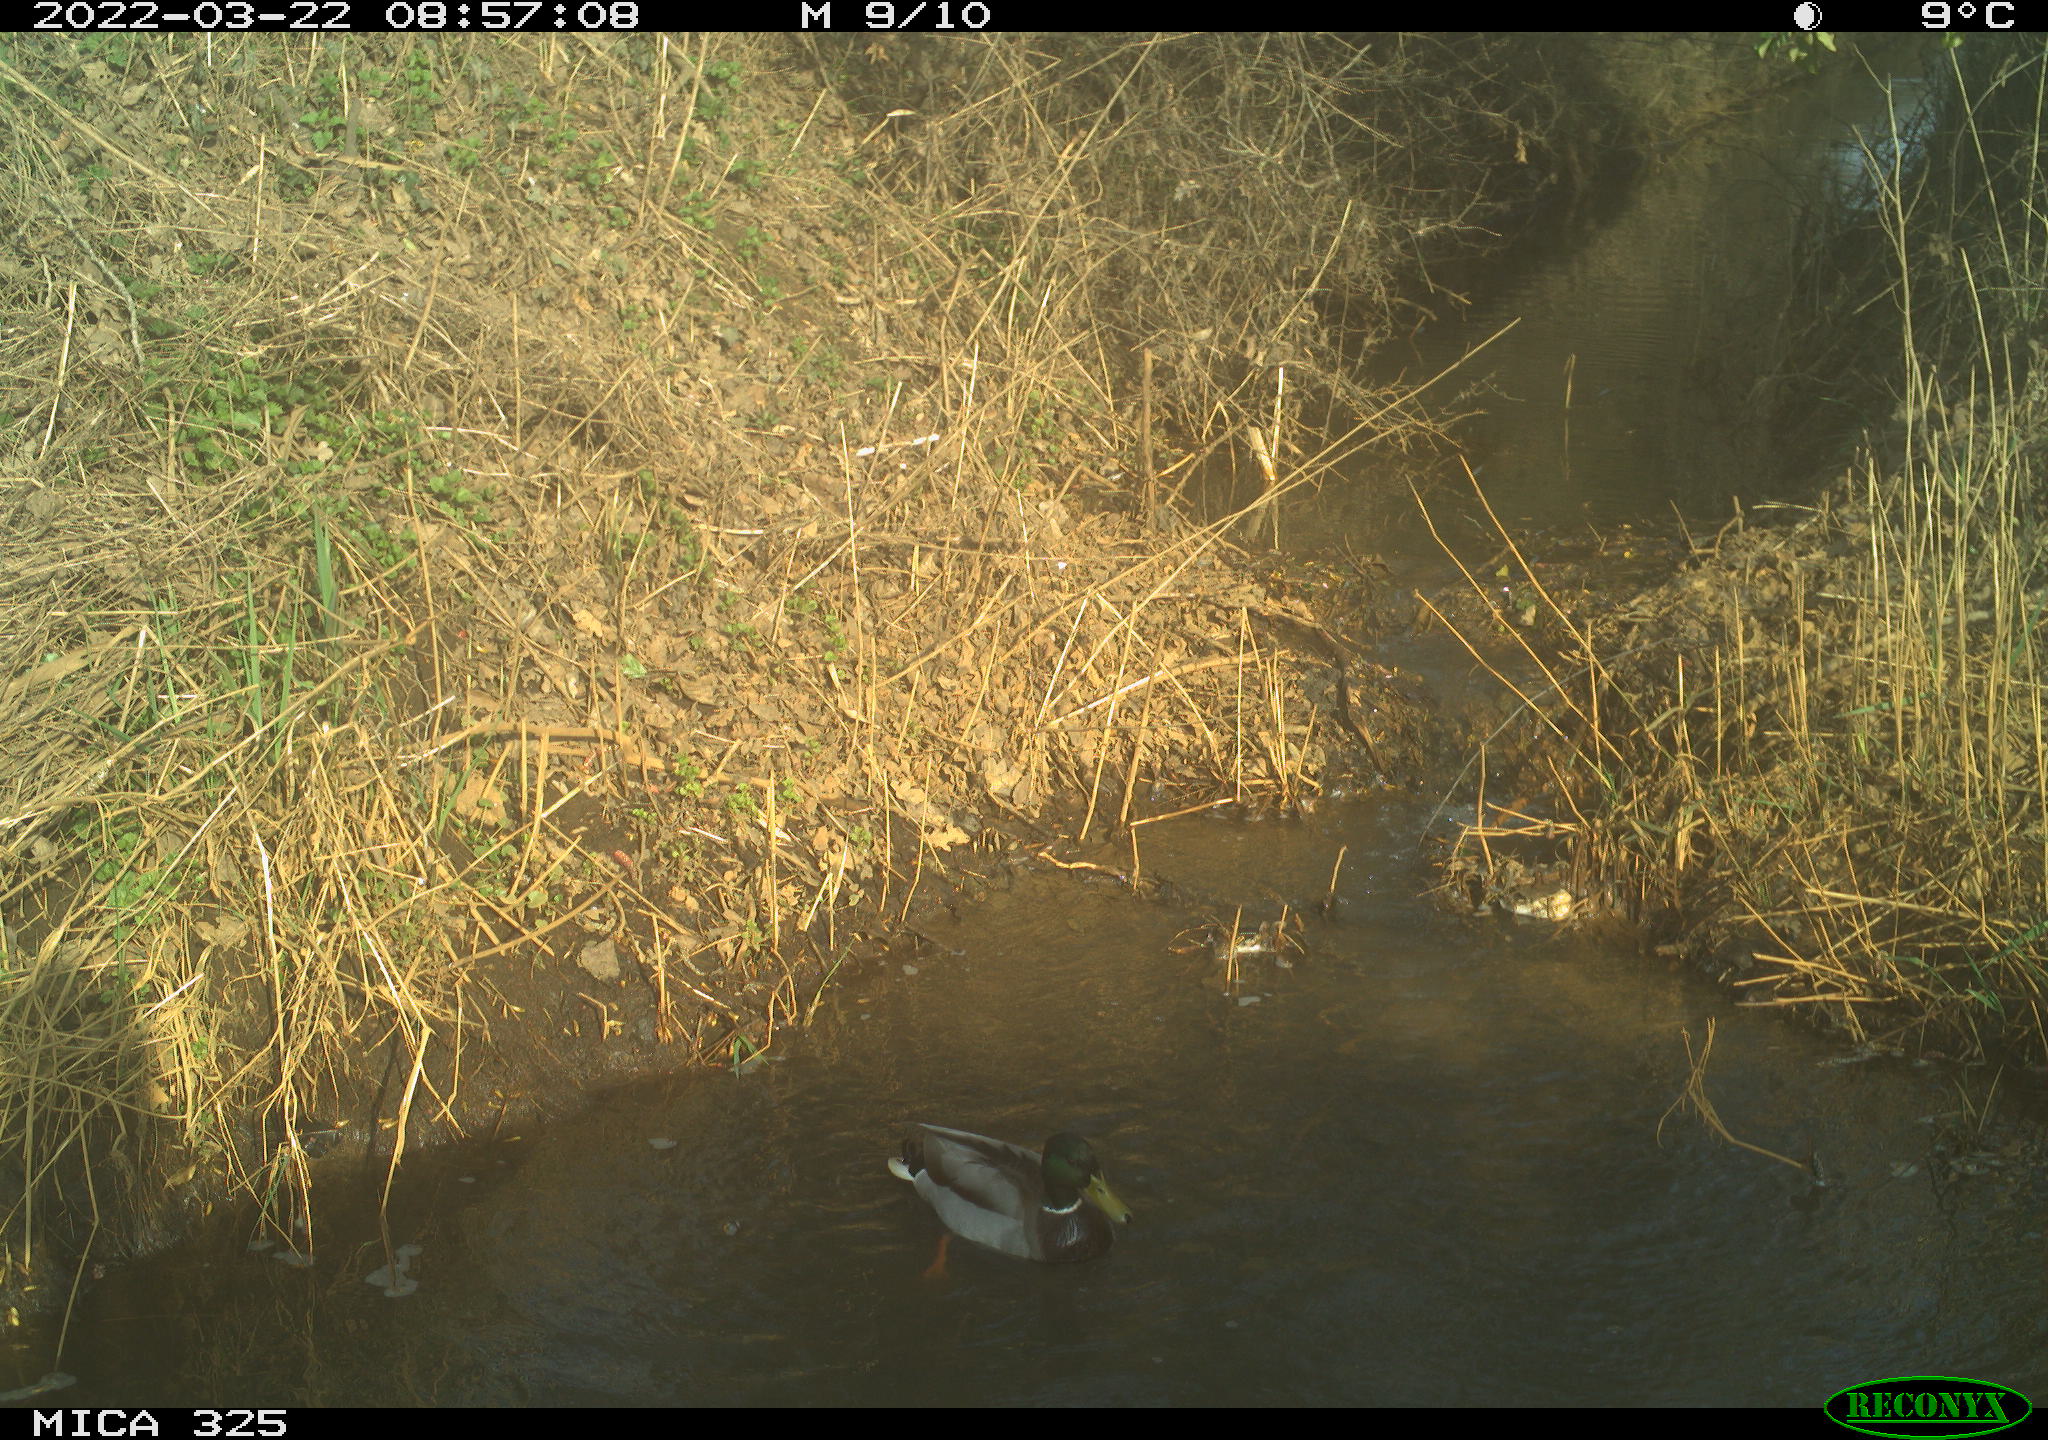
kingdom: Animalia
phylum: Chordata
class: Aves
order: Anseriformes
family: Anatidae
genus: Anas
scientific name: Anas platyrhynchos
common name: Mallard
